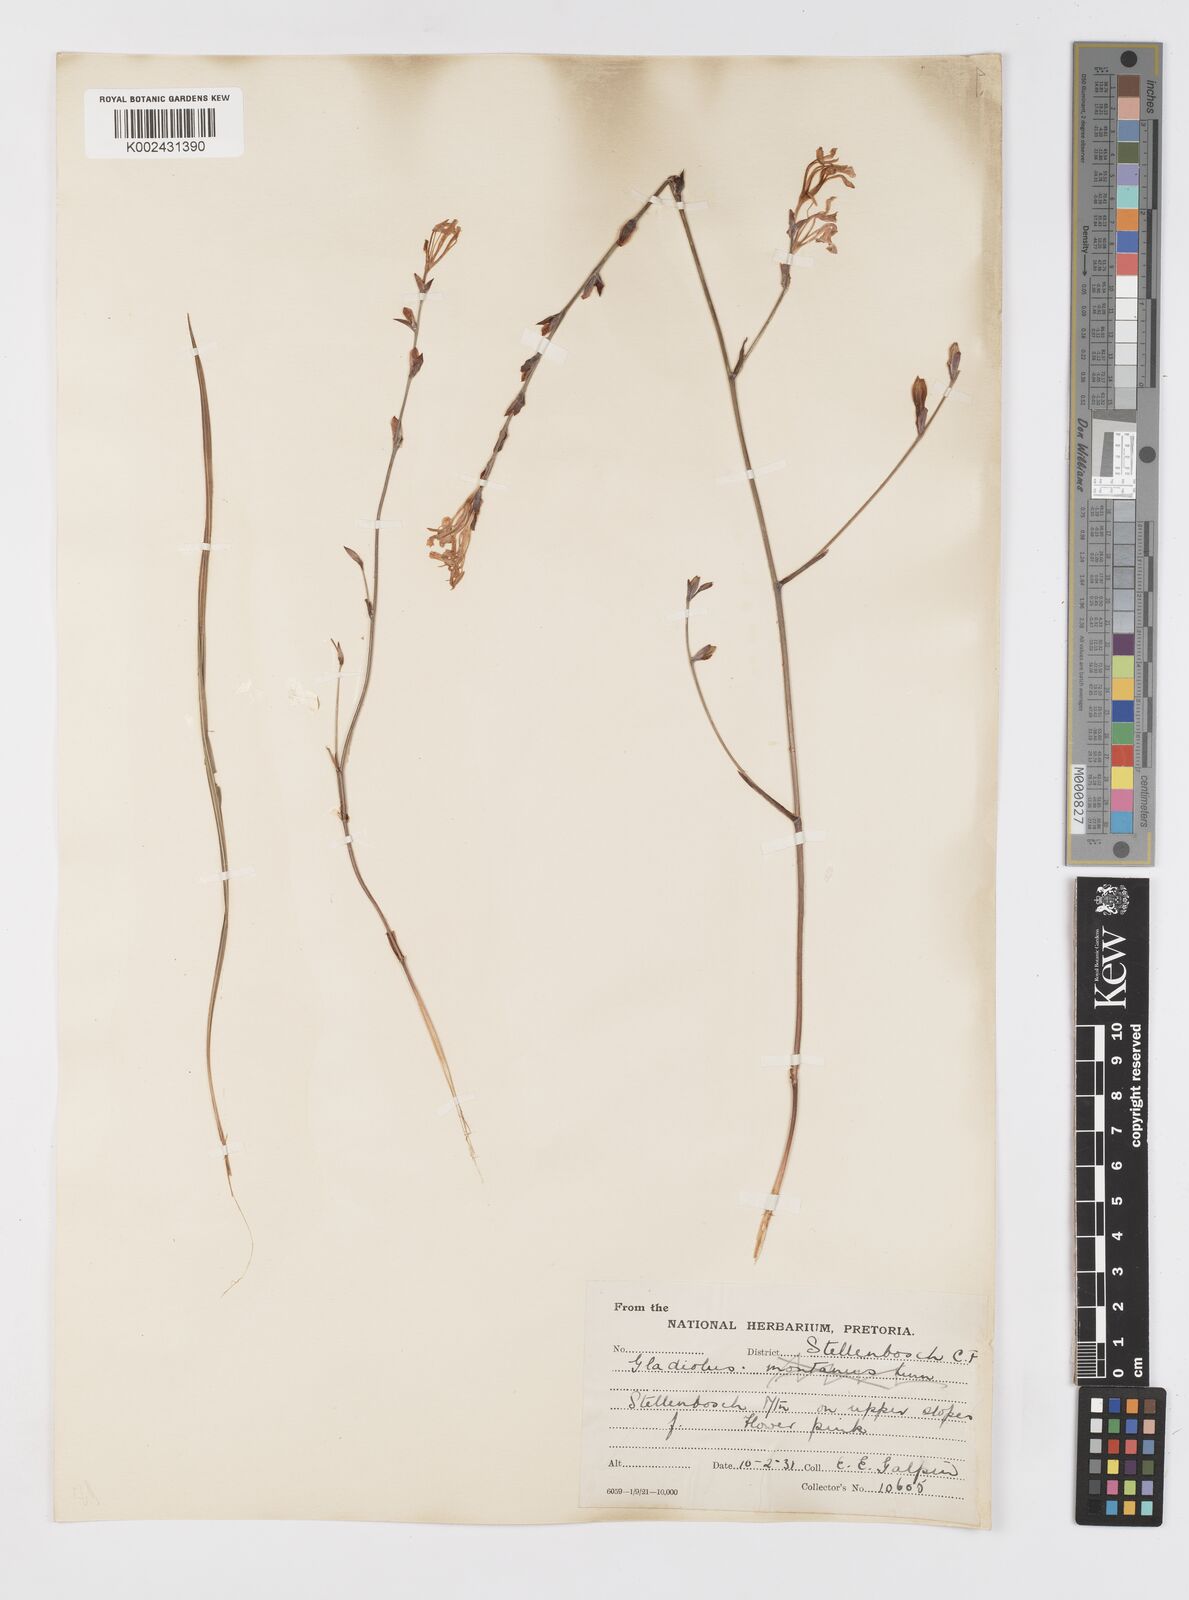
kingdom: Plantae
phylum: Tracheophyta
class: Liliopsida
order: Asparagales
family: Iridaceae
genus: Tritoniopsis
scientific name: Tritoniopsis ramosa
